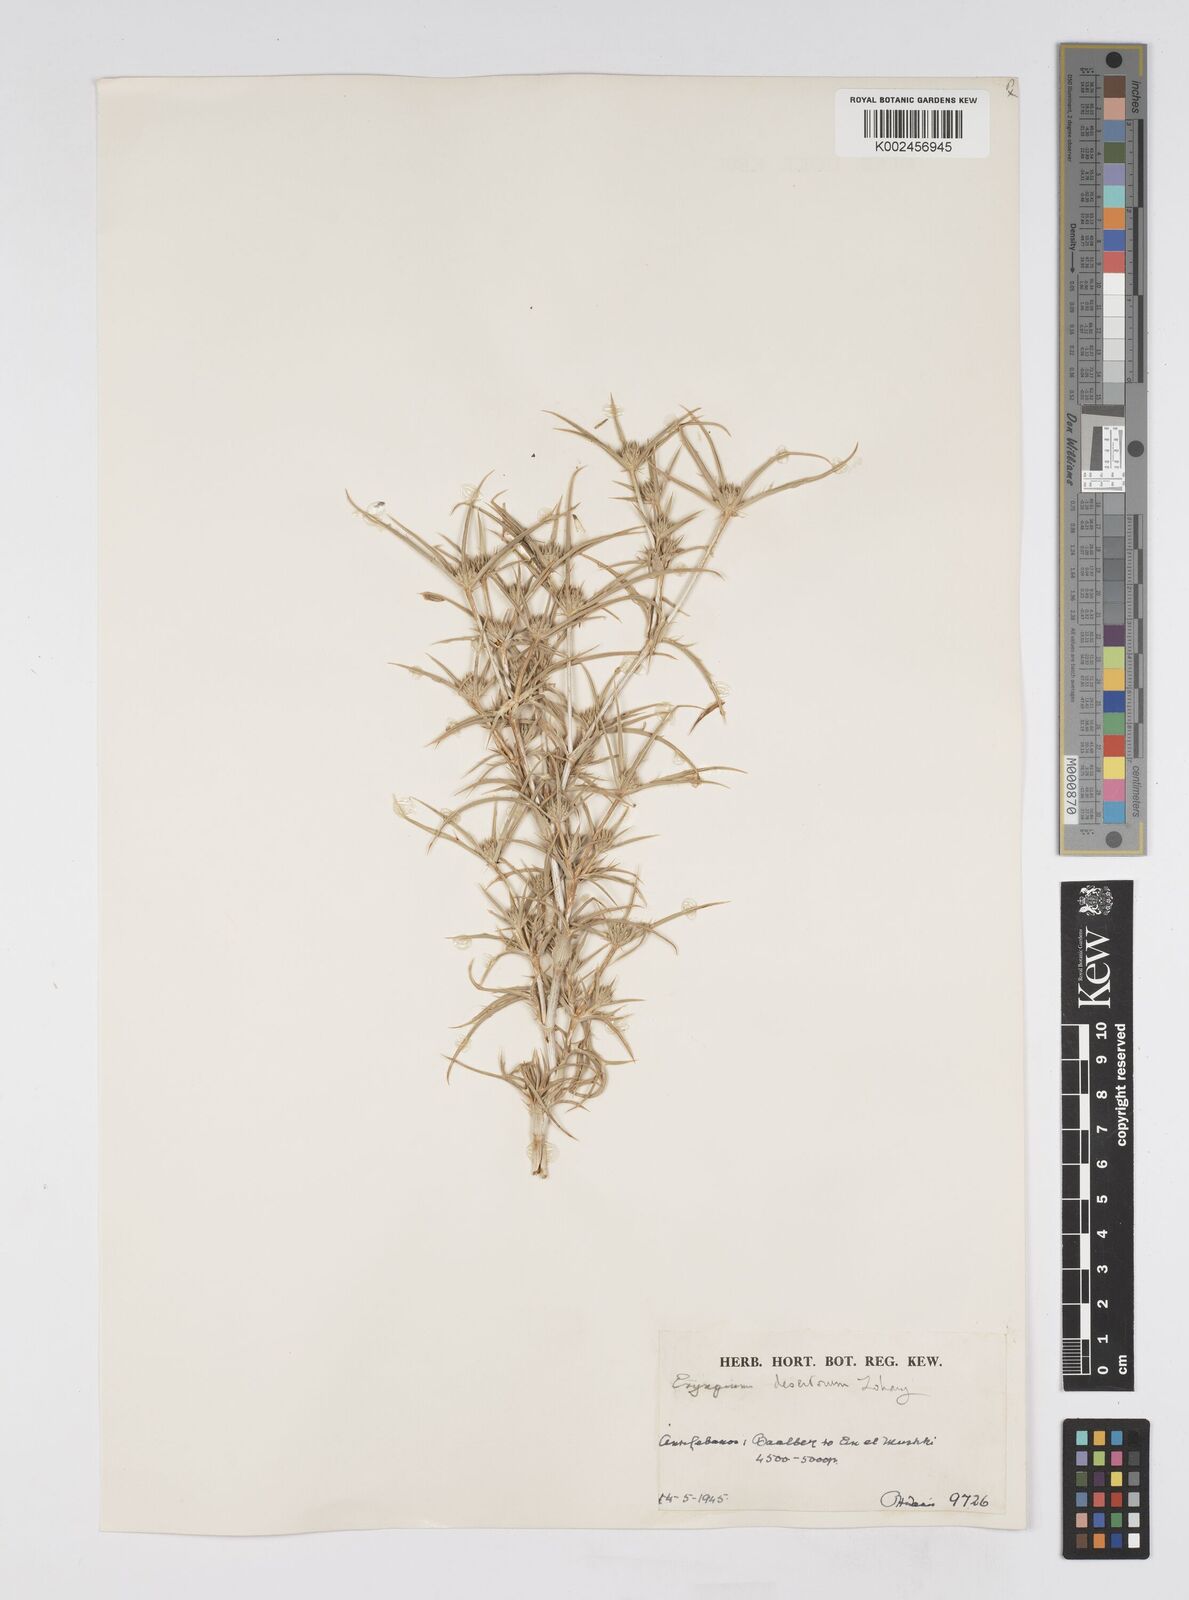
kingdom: Plantae
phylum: Tracheophyta
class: Magnoliopsida
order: Apiales
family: Apiaceae
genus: Eryngium
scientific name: Eryngium desertorum
